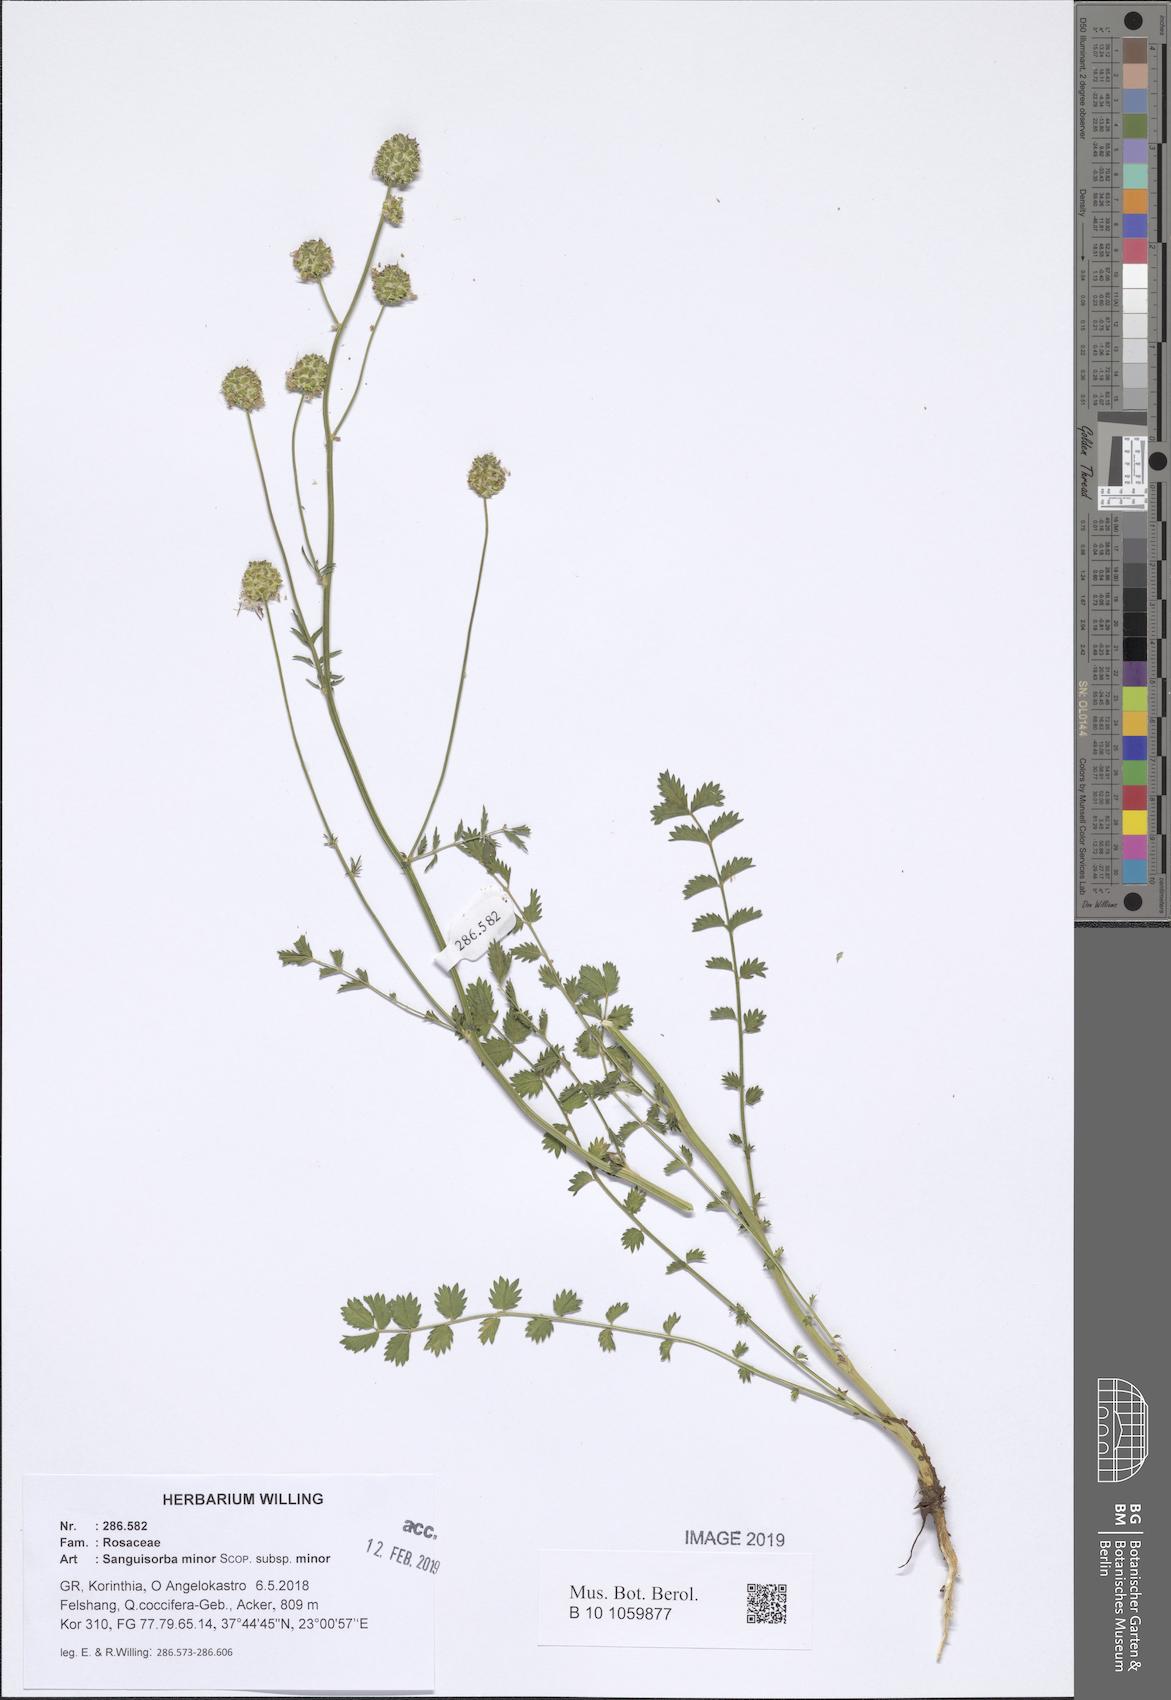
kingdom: Plantae
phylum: Tracheophyta
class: Magnoliopsida
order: Rosales
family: Rosaceae
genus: Poterium
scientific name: Poterium sanguisorba
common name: Salad burnet
